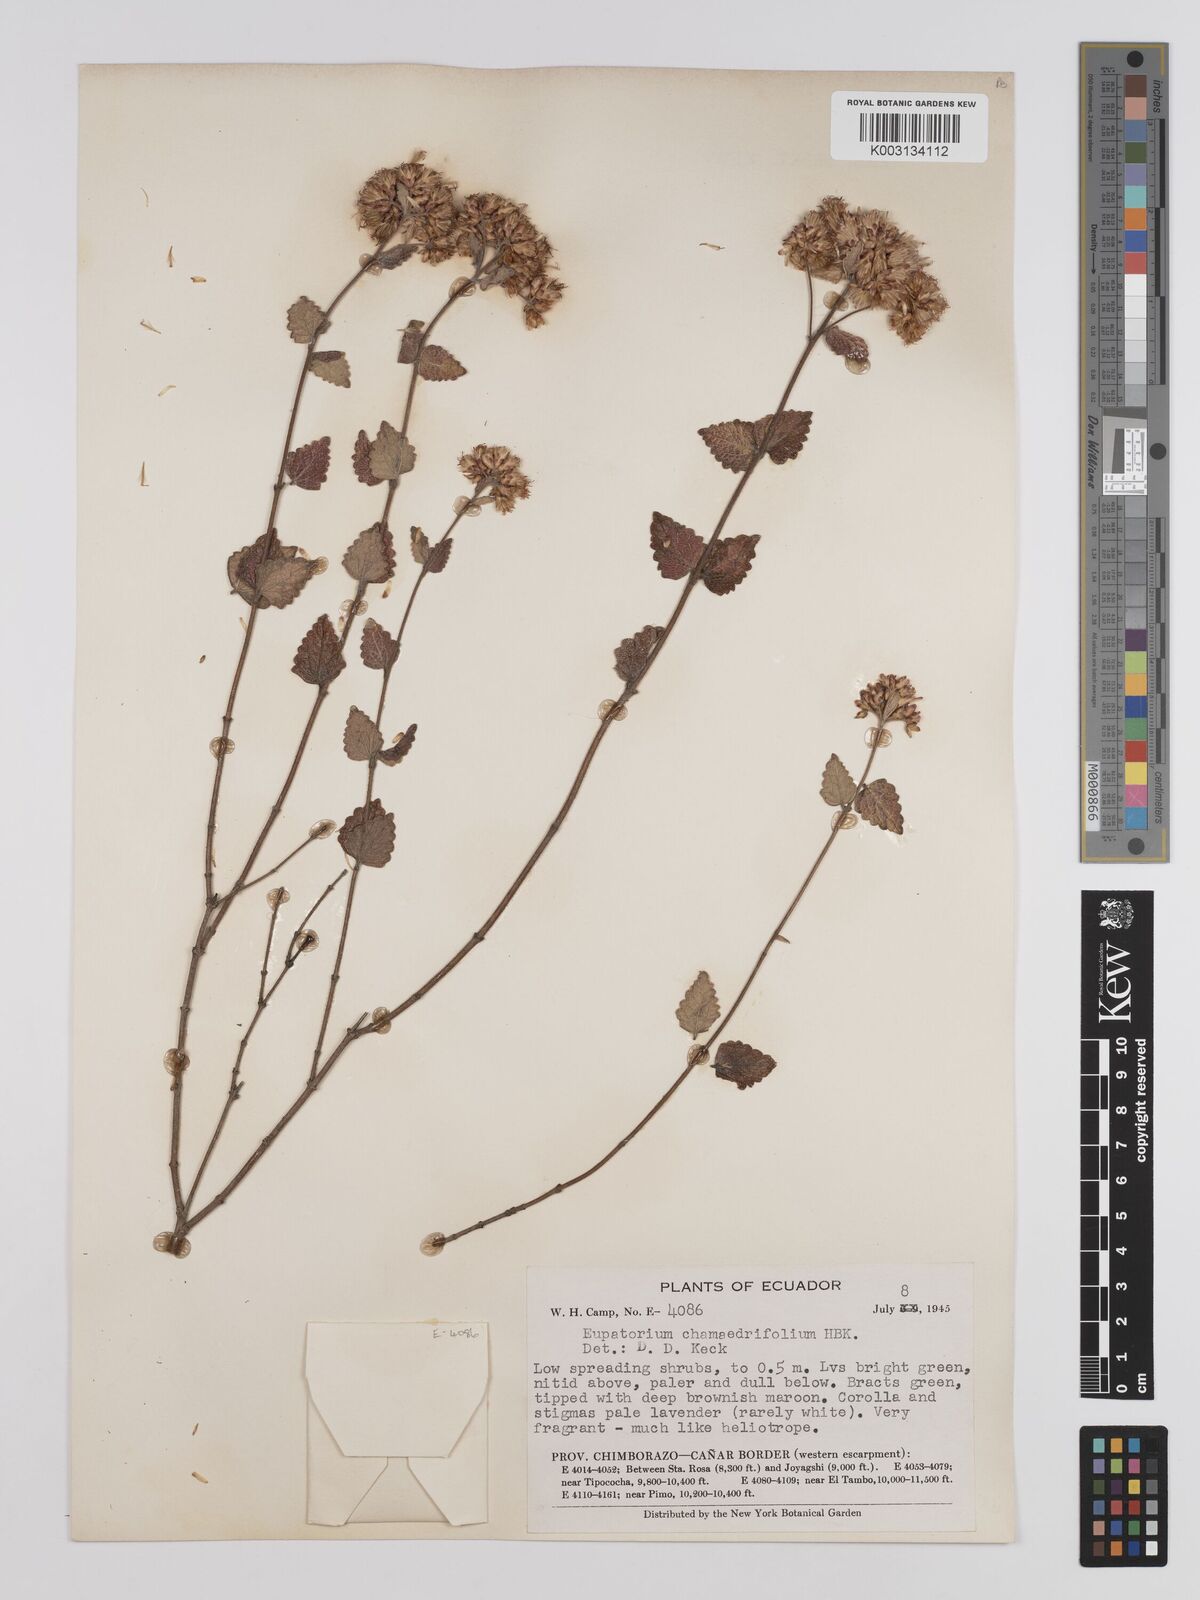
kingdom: Plantae
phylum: Tracheophyta
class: Magnoliopsida
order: Asterales
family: Asteraceae
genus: Cronquistianthus
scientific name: Cronquistianthus chamaedrifolius
